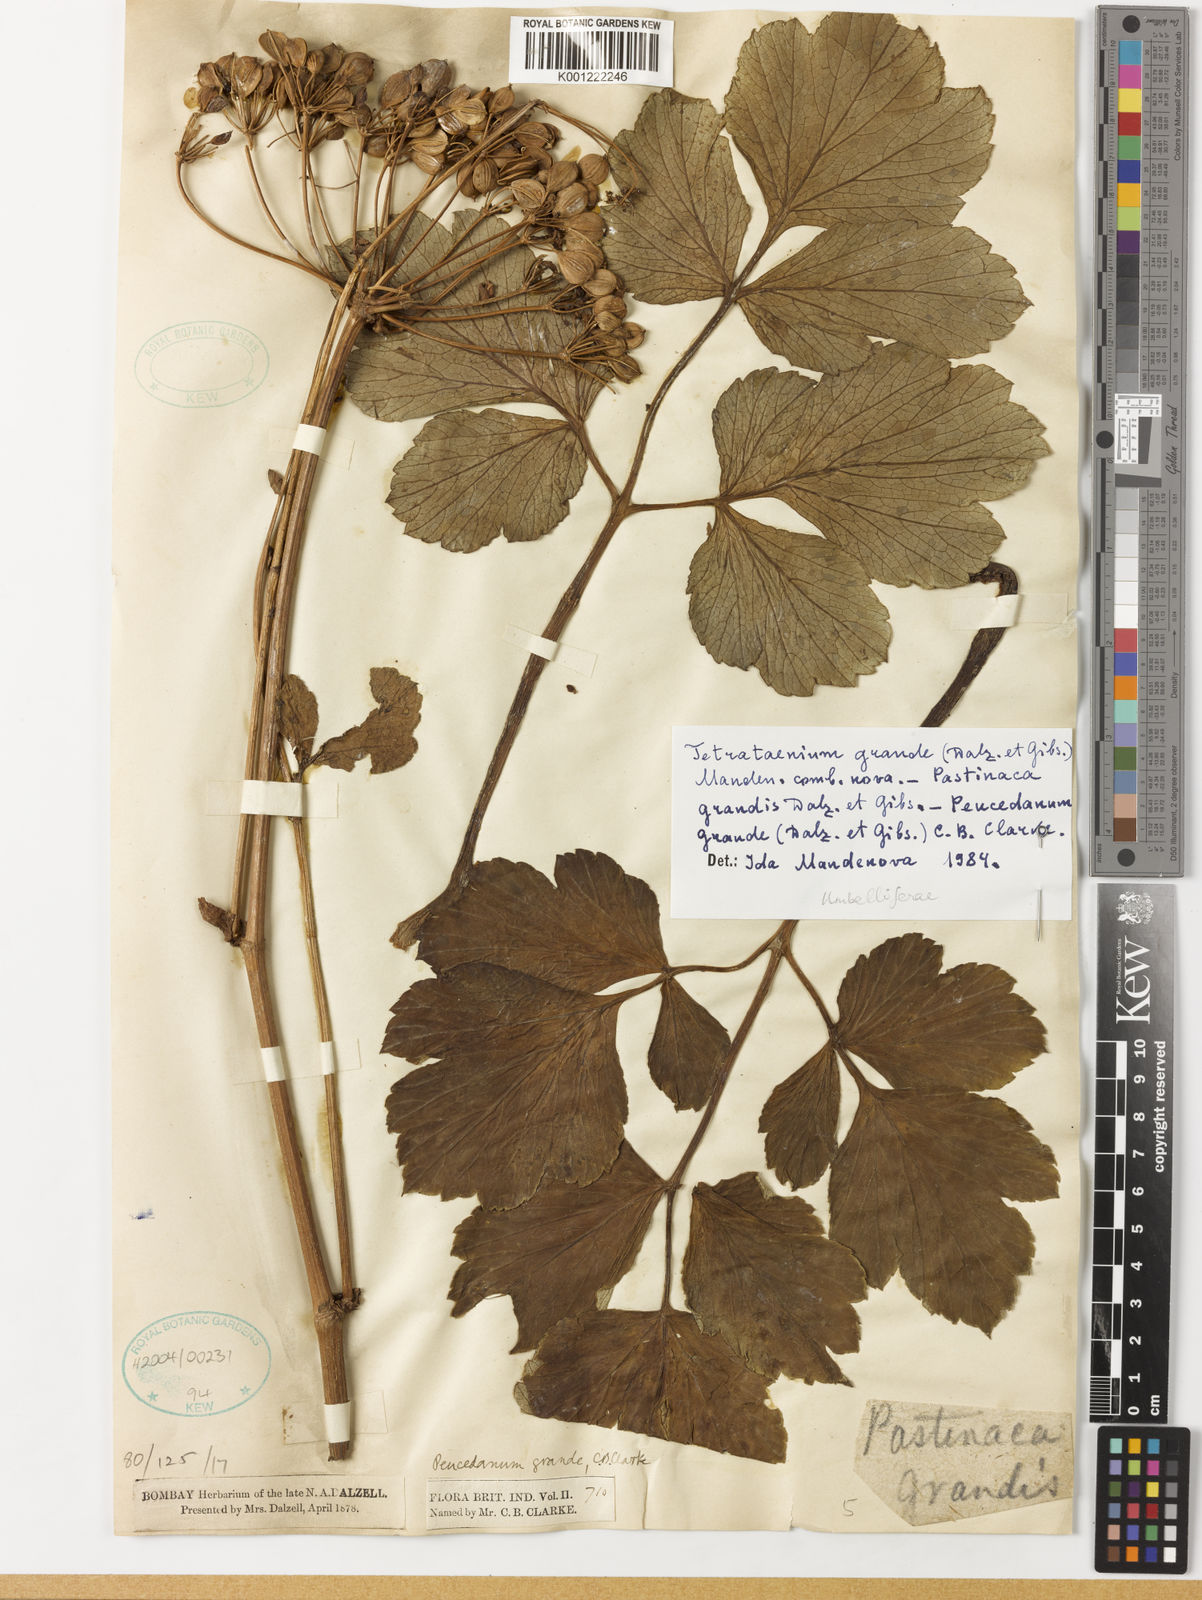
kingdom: Plantae
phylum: Tracheophyta
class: Magnoliopsida
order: Apiales
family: Apiaceae
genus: Tetrataenium
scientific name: Tetrataenium grande
